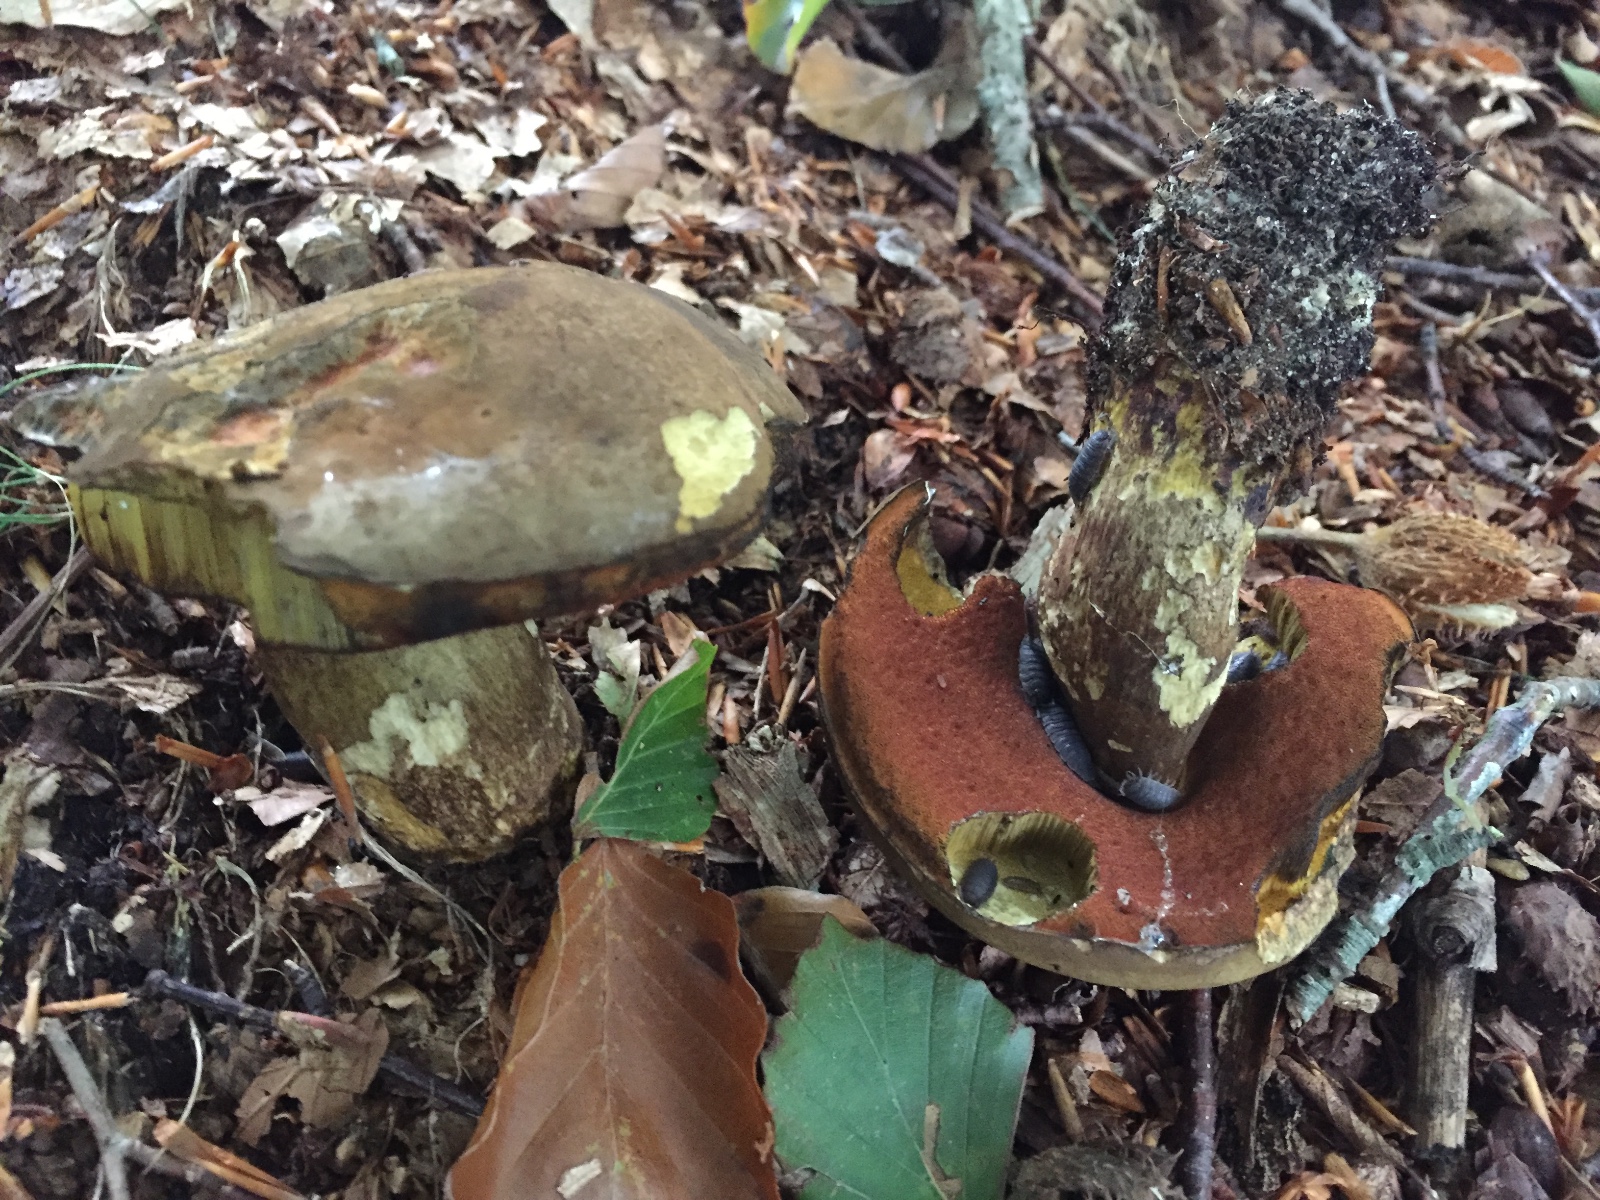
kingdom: Fungi
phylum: Basidiomycota
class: Agaricomycetes
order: Boletales
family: Boletaceae
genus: Neoboletus
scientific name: Neoboletus erythropus
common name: punktstokket indigorørhat
